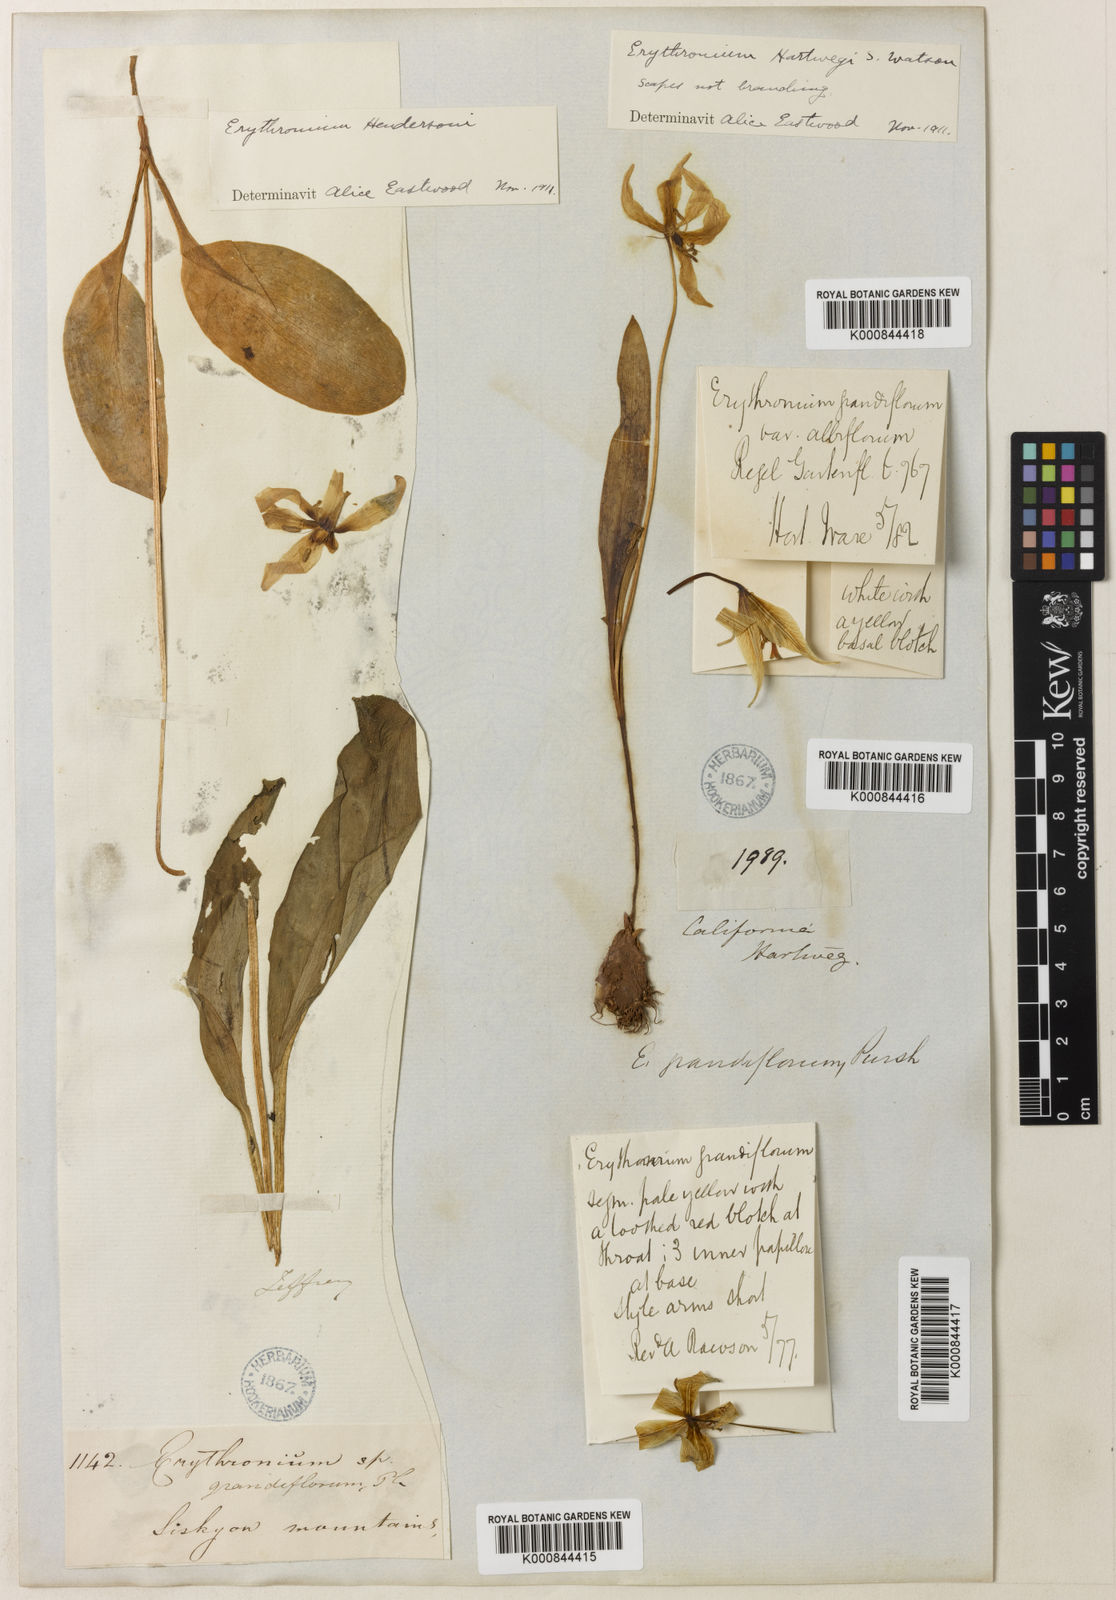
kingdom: Plantae
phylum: Tracheophyta
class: Liliopsida
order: Liliales
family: Liliaceae
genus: Erythronium
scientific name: Erythronium multiscapideum
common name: Sierra foothills fawn-lily
